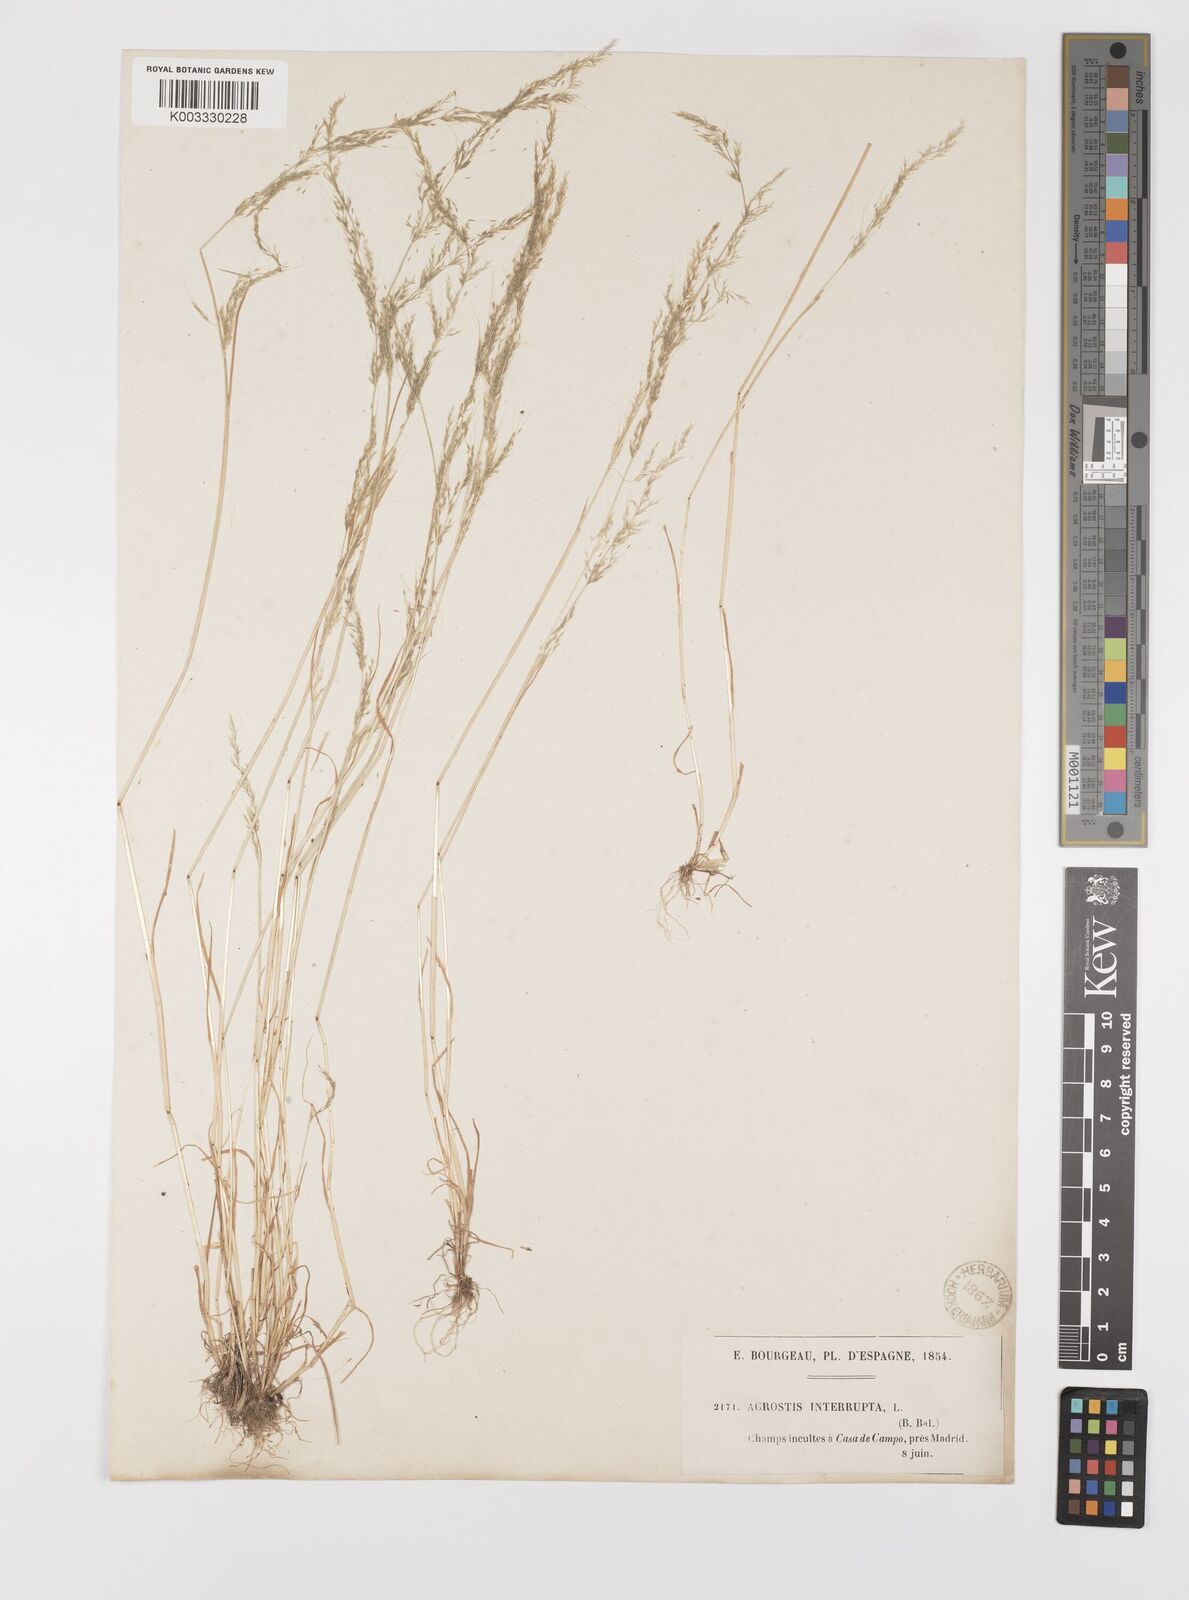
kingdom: Plantae
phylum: Tracheophyta
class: Liliopsida
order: Poales
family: Poaceae
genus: Apera
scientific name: Apera interrupta
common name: Dense silky-bent
